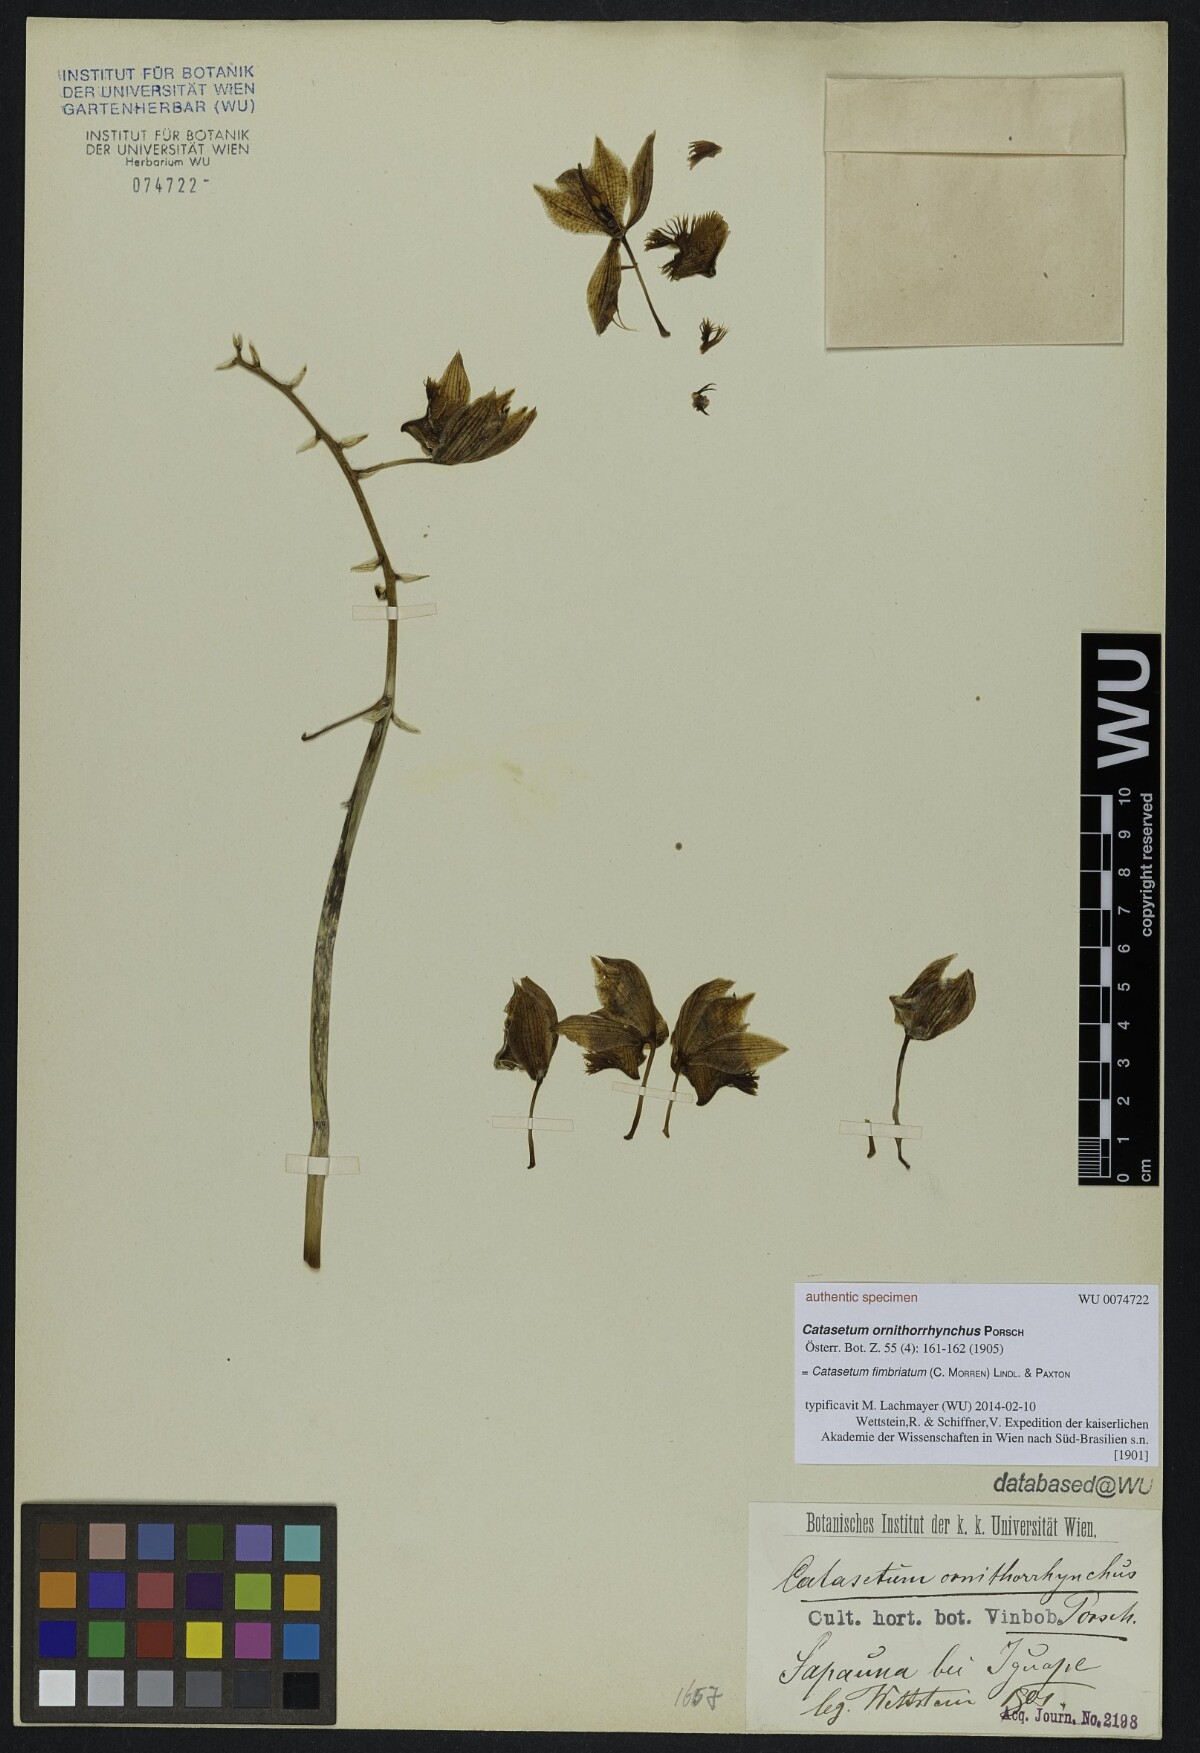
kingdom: Plantae
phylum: Tracheophyta
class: Liliopsida
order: Asparagales
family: Orchidaceae
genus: Catasetum
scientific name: Catasetum fimbriatum
